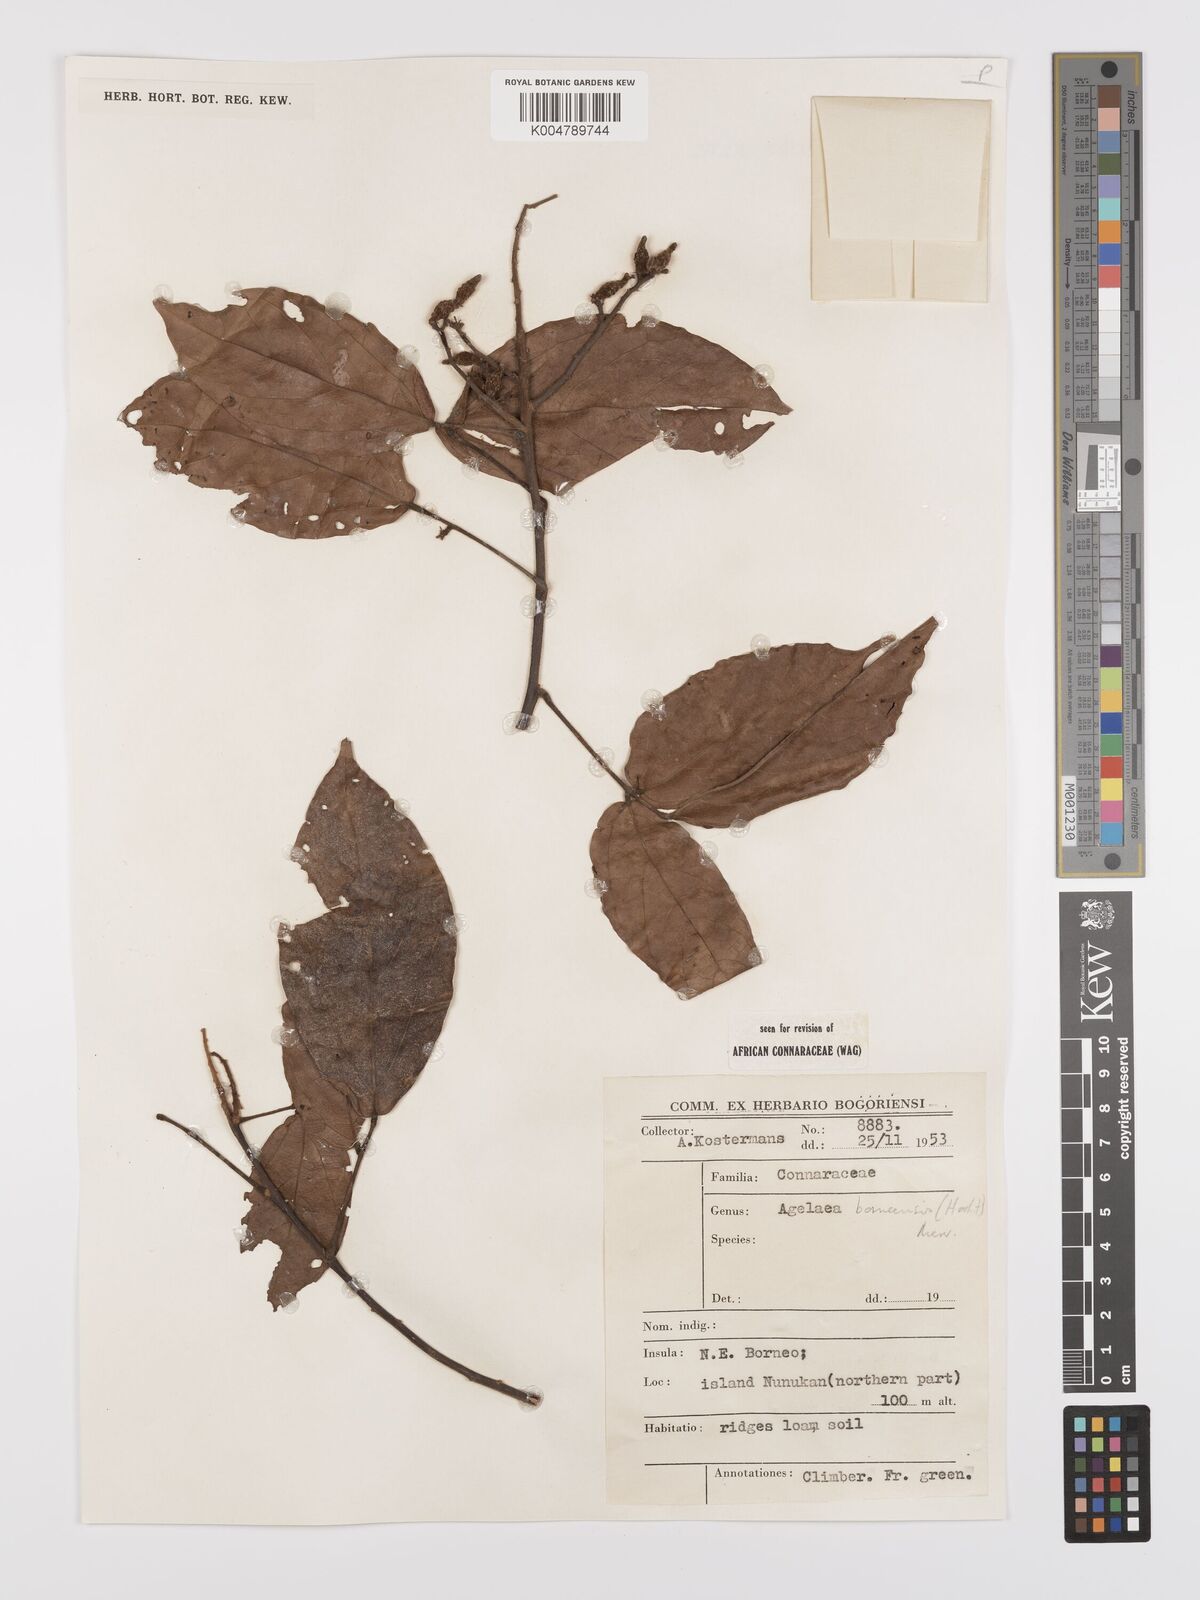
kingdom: Plantae
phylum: Tracheophyta
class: Magnoliopsida
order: Oxalidales
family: Connaraceae
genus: Agelaea
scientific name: Agelaea borneensis
